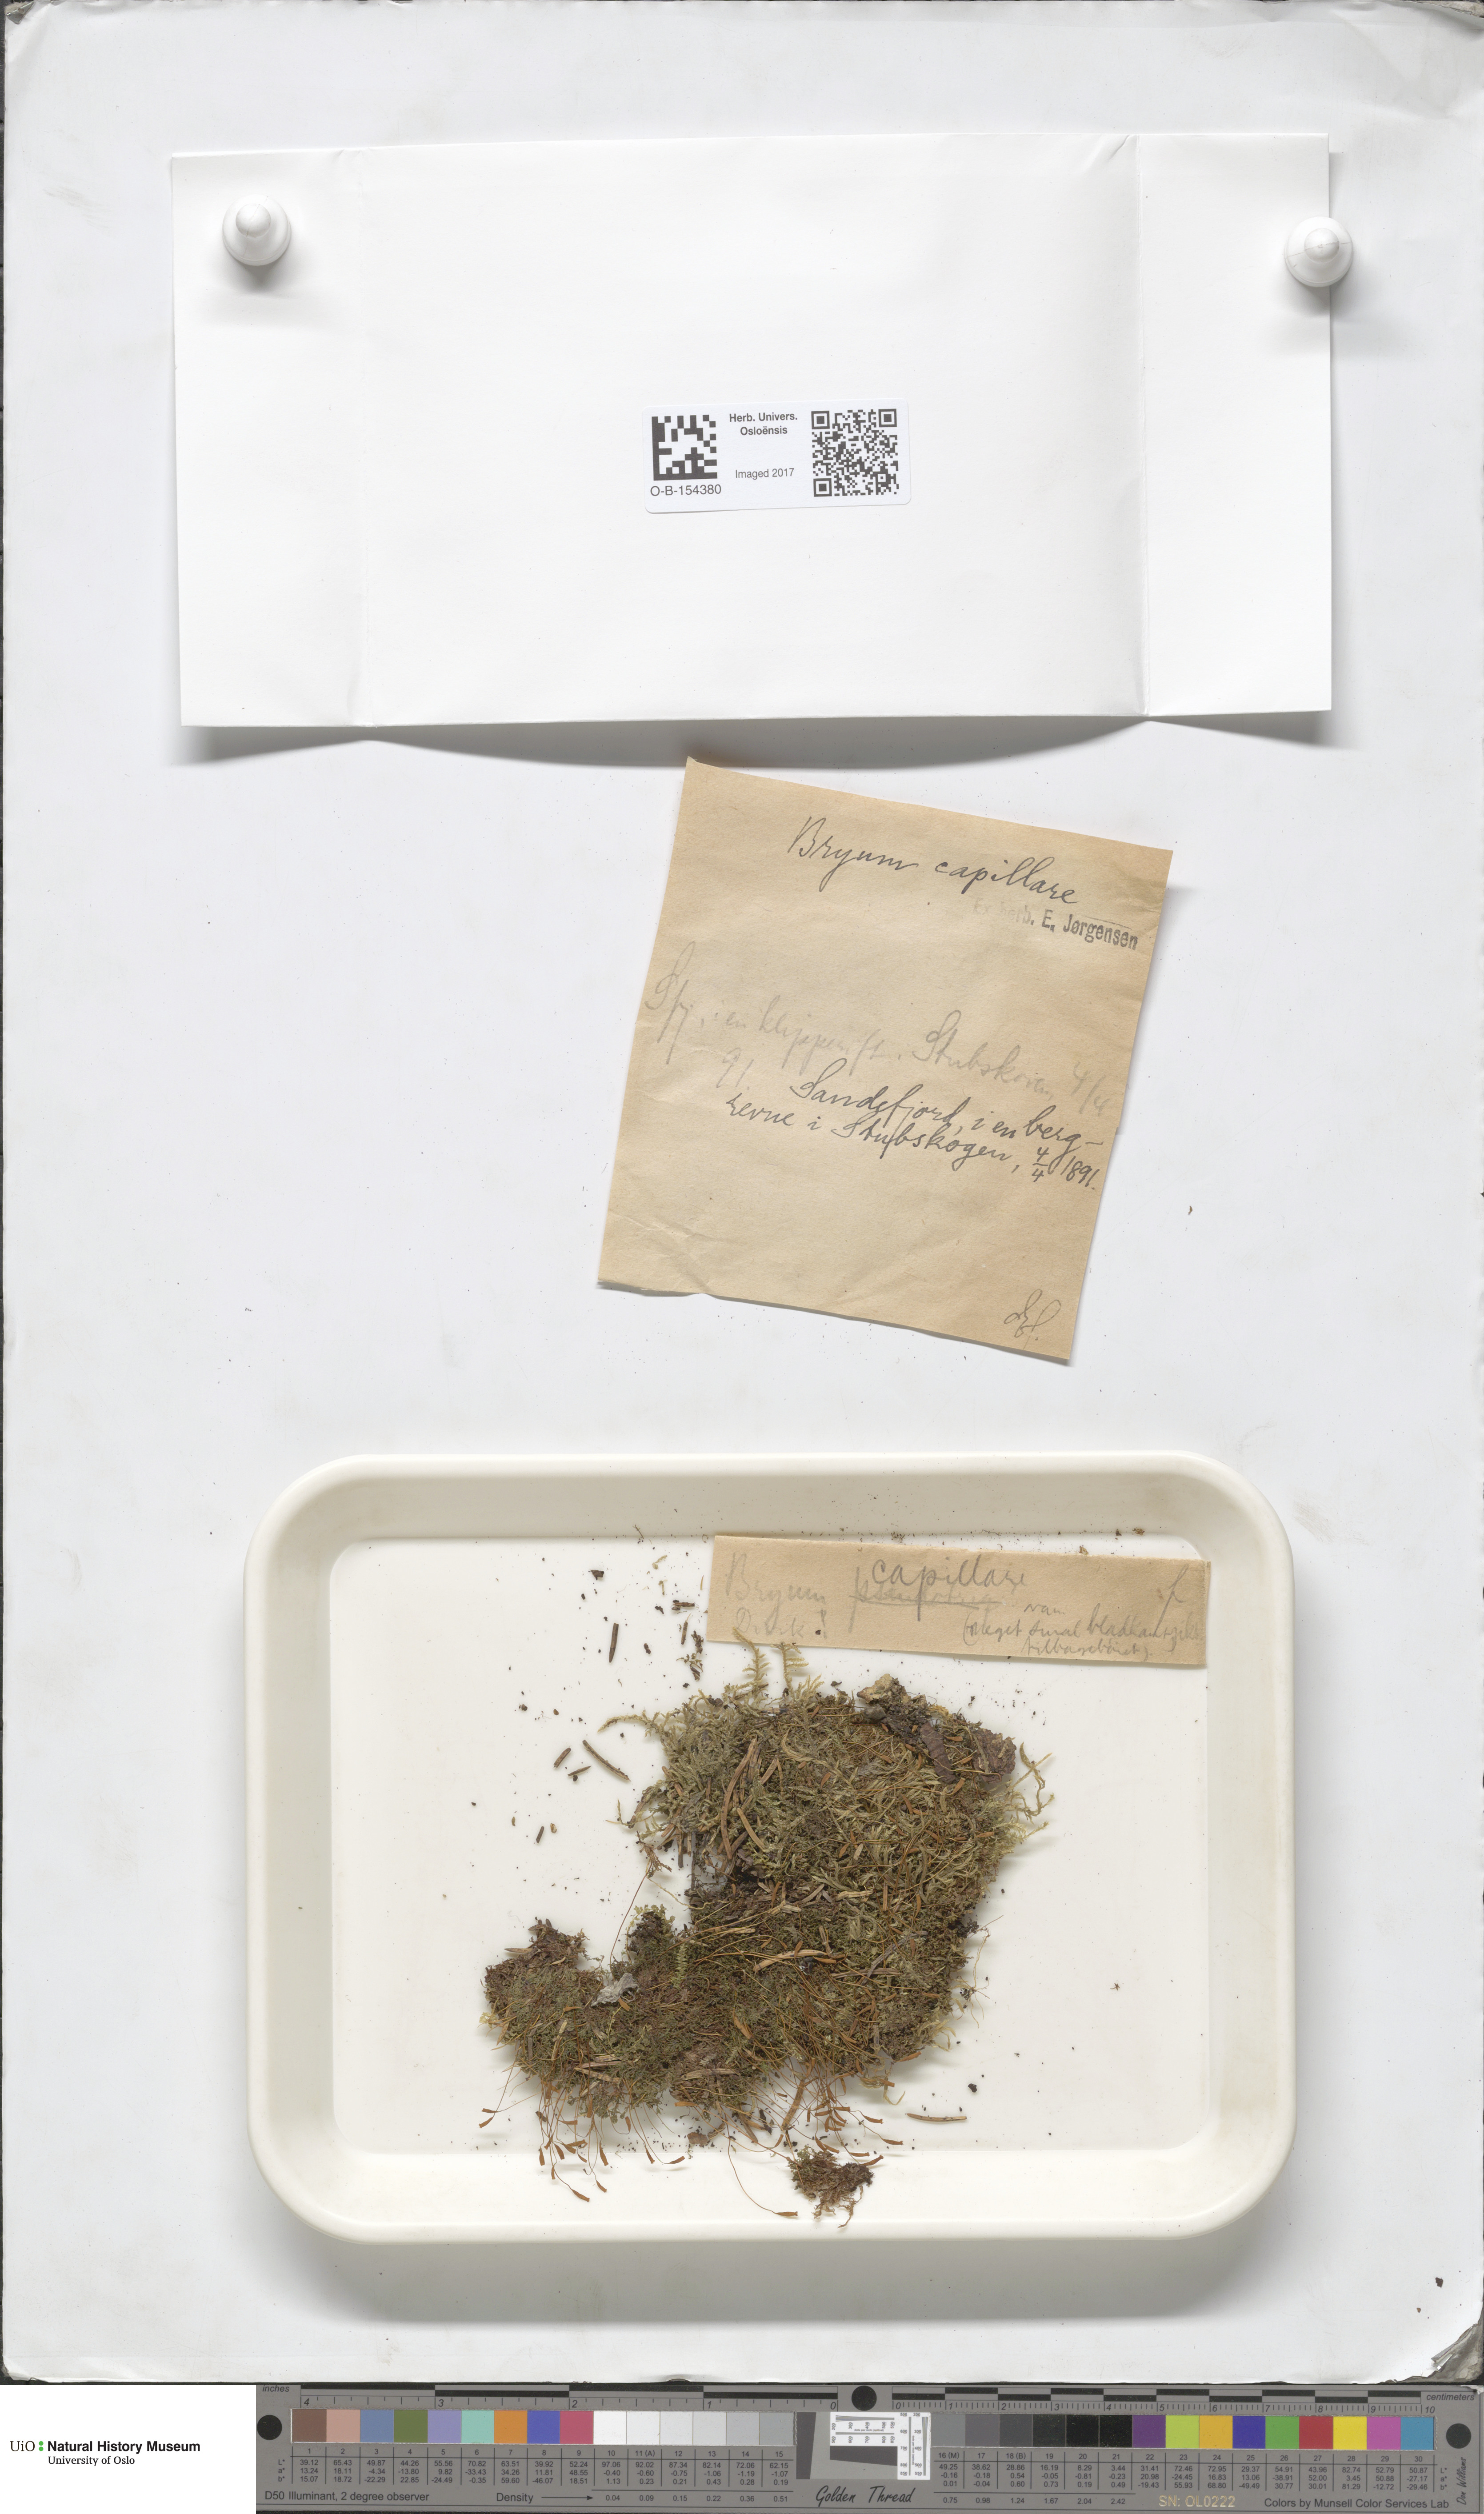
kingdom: Plantae
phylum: Bryophyta
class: Bryopsida
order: Bryales
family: Bryaceae
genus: Rosulabryum
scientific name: Rosulabryum capillare
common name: Capillary thread-moss
